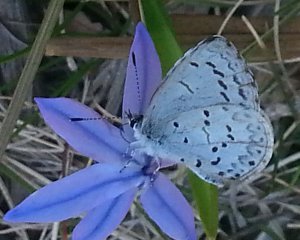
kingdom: Animalia
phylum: Arthropoda
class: Insecta
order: Lepidoptera
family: Lycaenidae
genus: Celastrina
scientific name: Celastrina ladon
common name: Spring Azure
